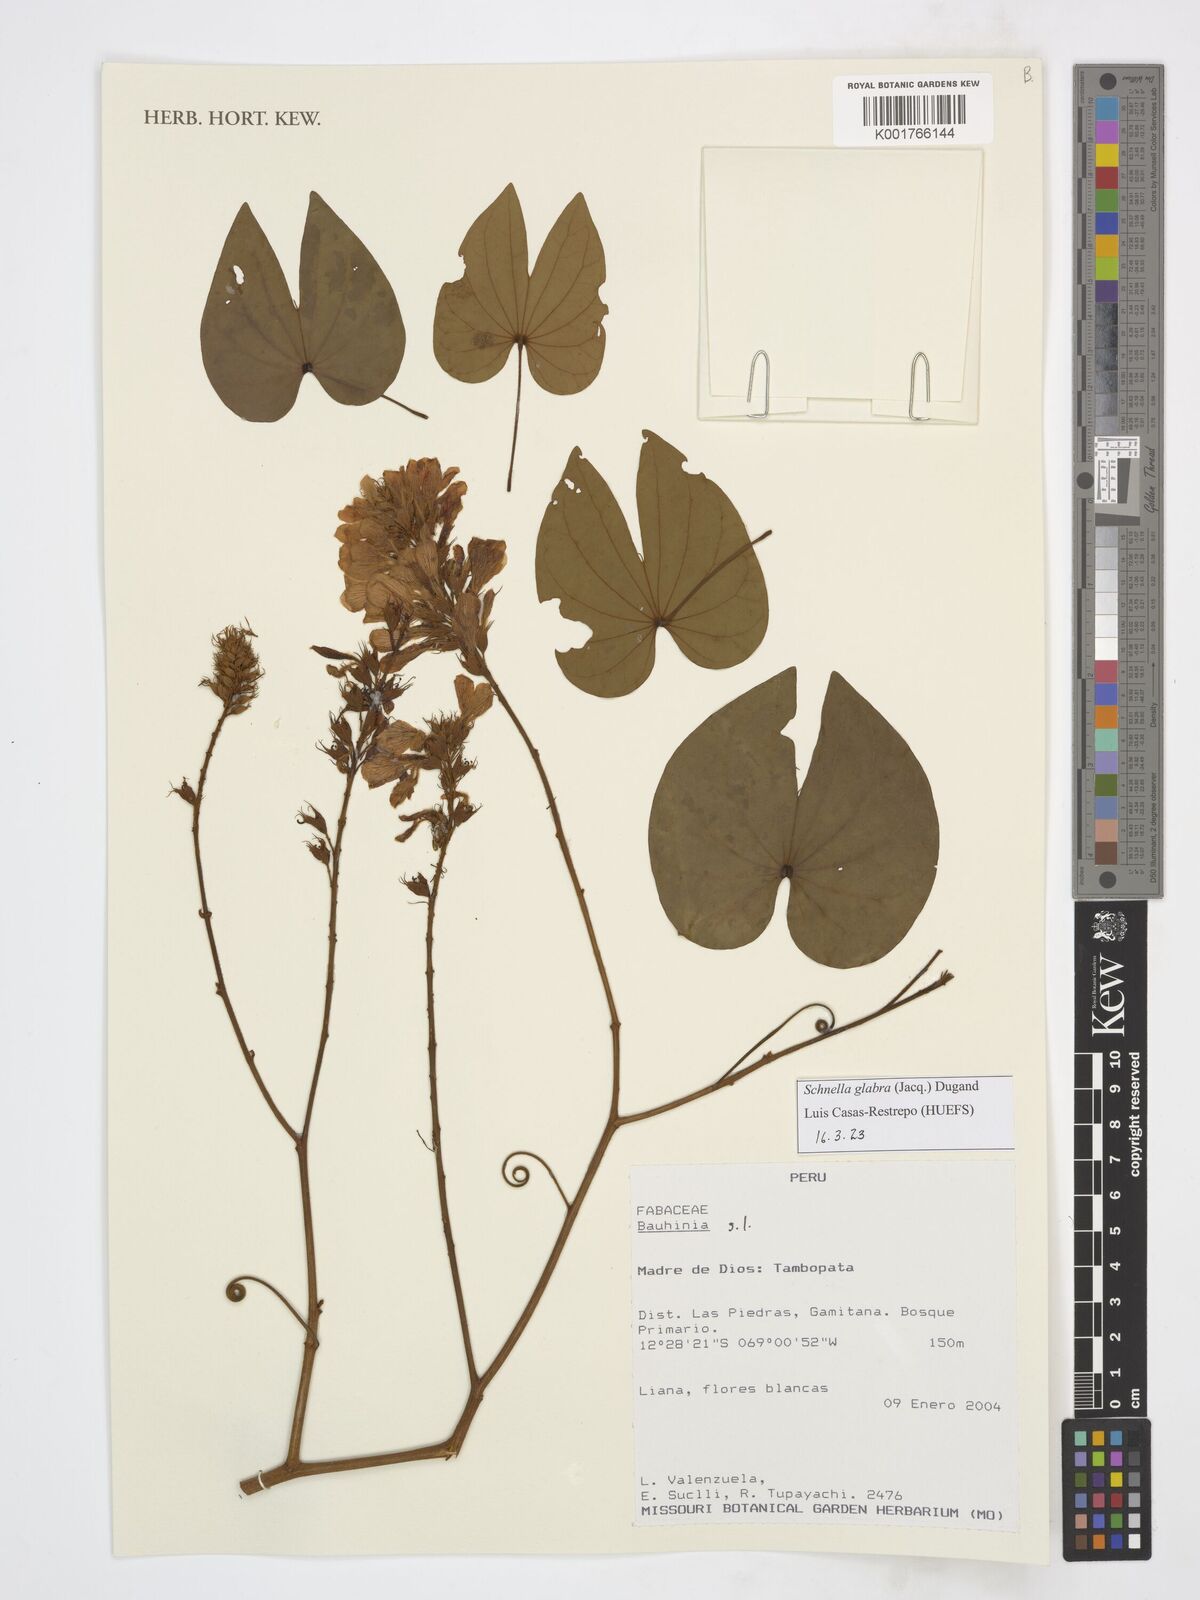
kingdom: Plantae
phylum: Tracheophyta
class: Magnoliopsida
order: Fabales
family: Fabaceae
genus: Schnella
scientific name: Schnella glabra
